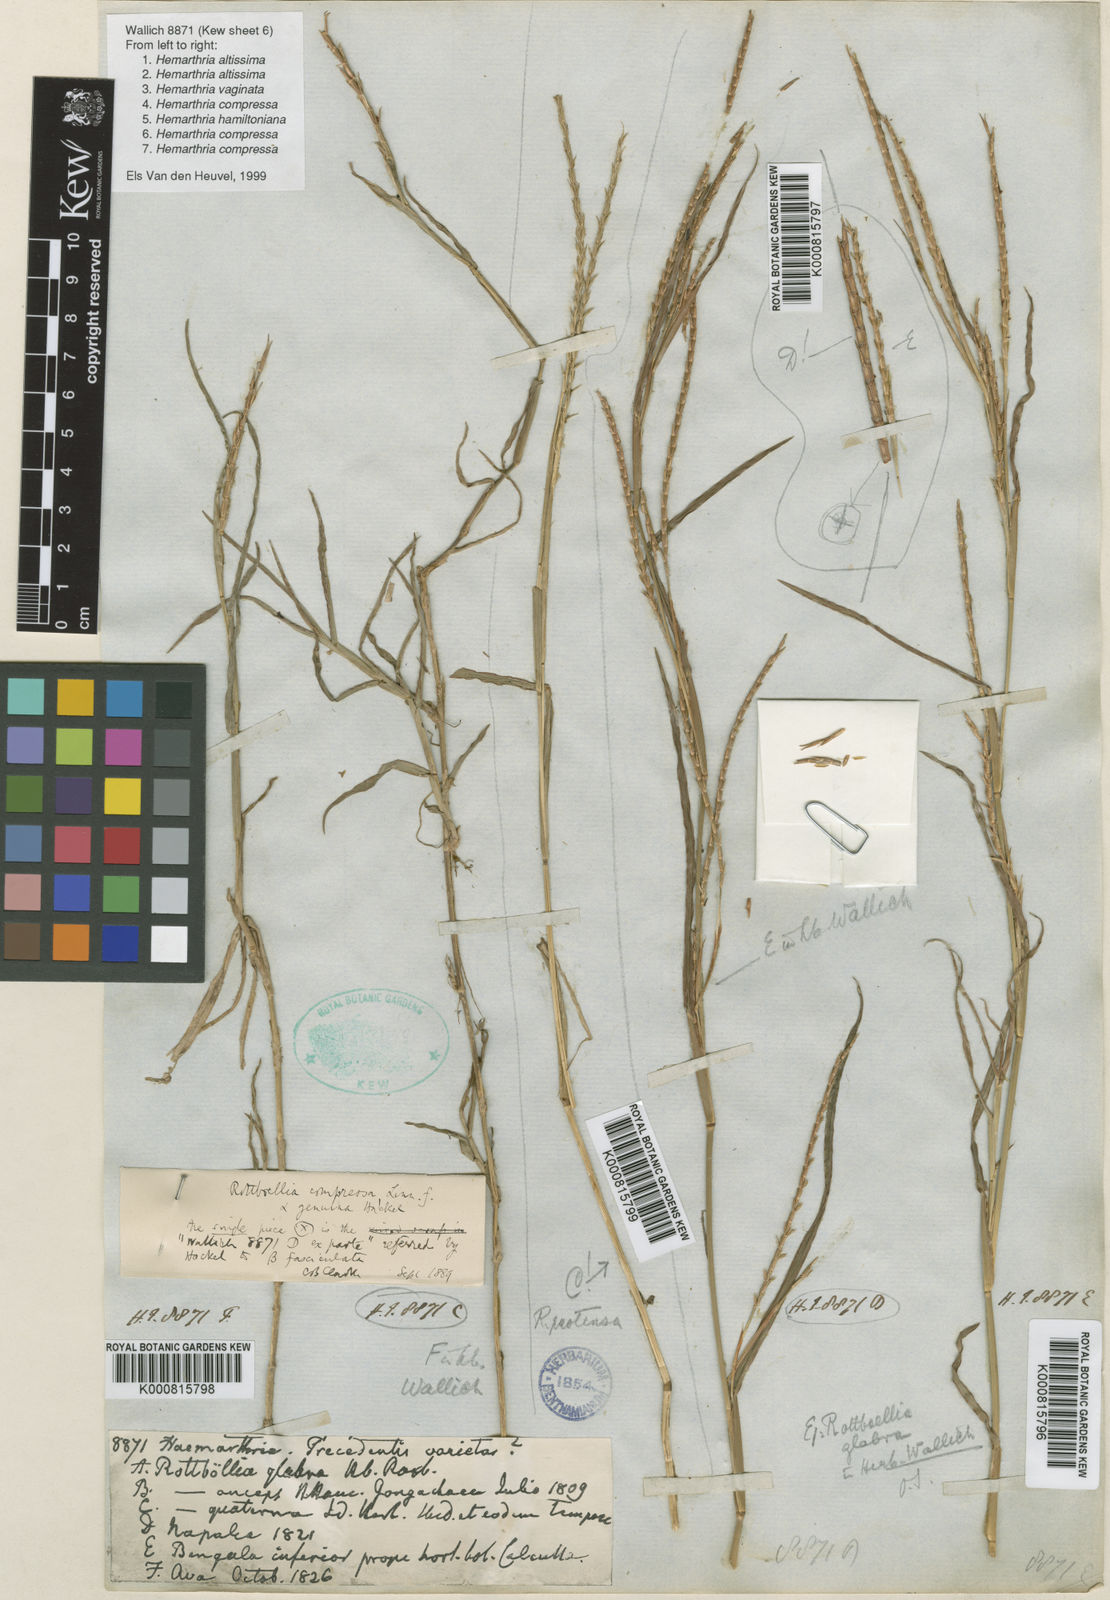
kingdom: Plantae
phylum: Tracheophyta
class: Liliopsida
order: Poales
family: Poaceae
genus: Hemarthria
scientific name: Hemarthria compressa
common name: Whip grass
